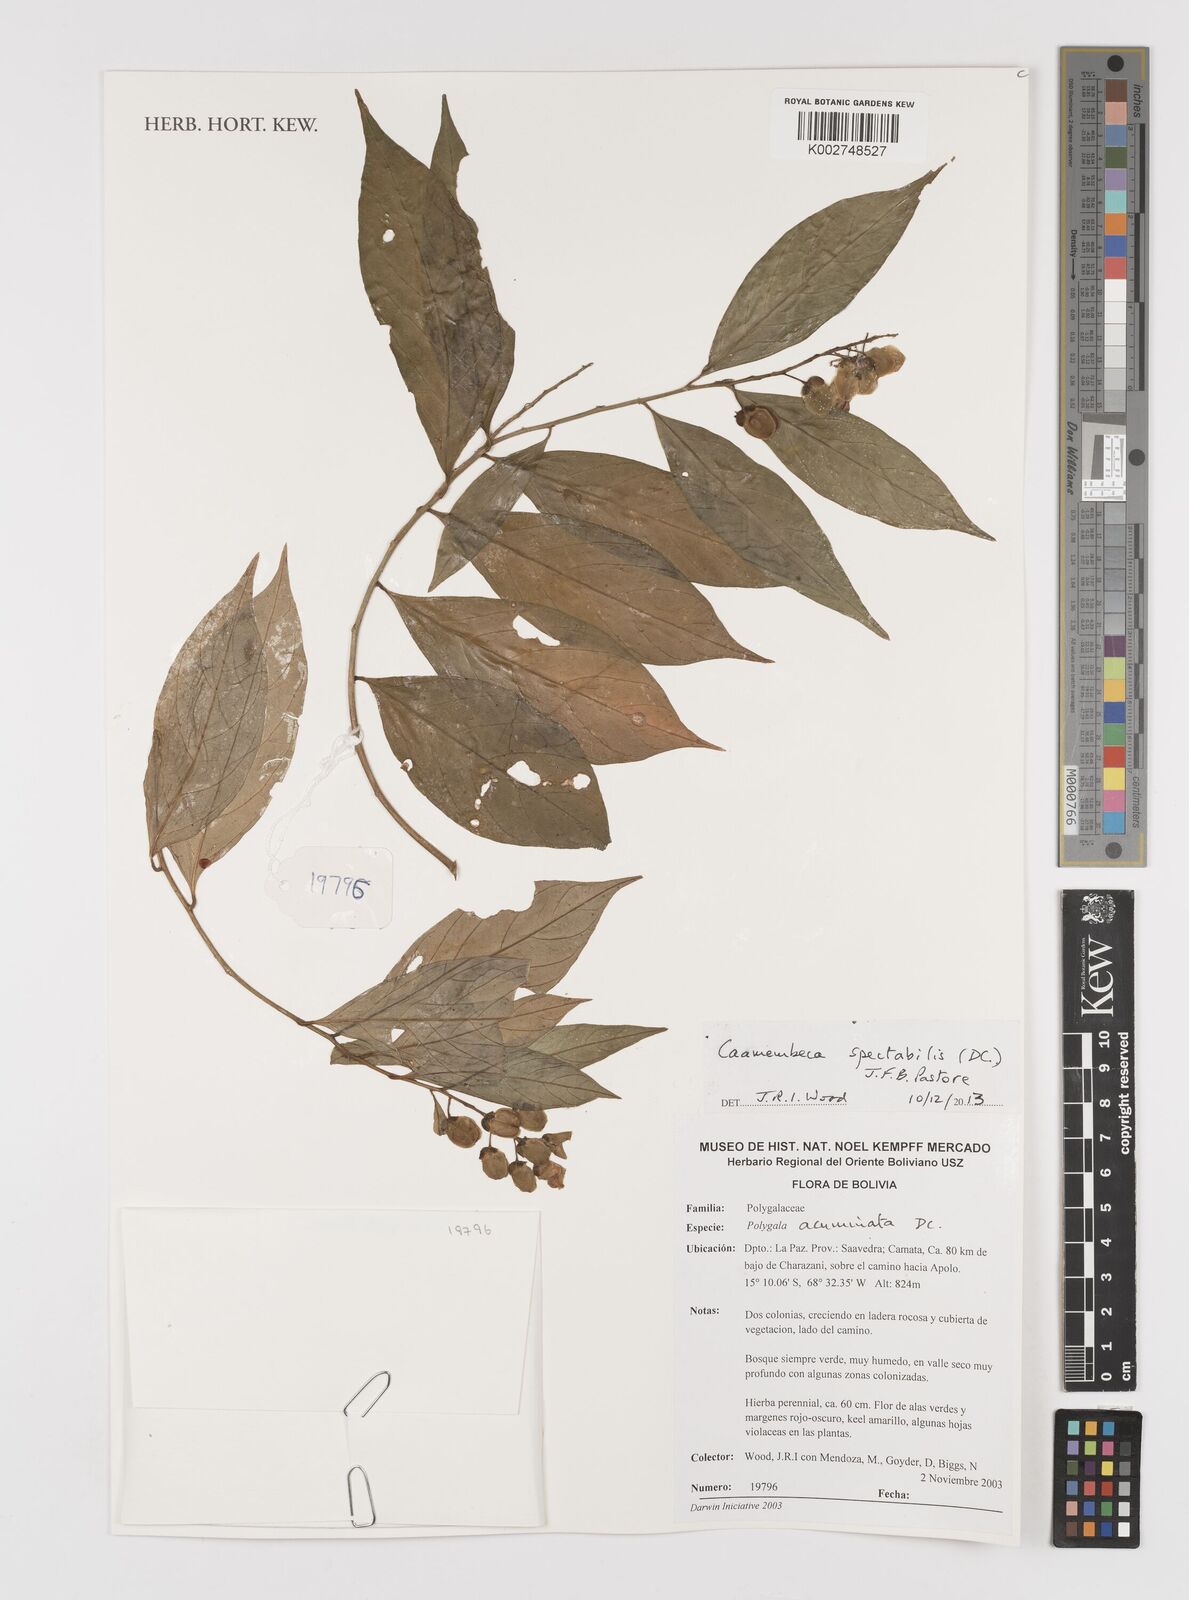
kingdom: Plantae
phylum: Tracheophyta
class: Magnoliopsida
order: Fabales
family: Polygalaceae
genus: Caamembeca
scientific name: Caamembeca spectabilis
